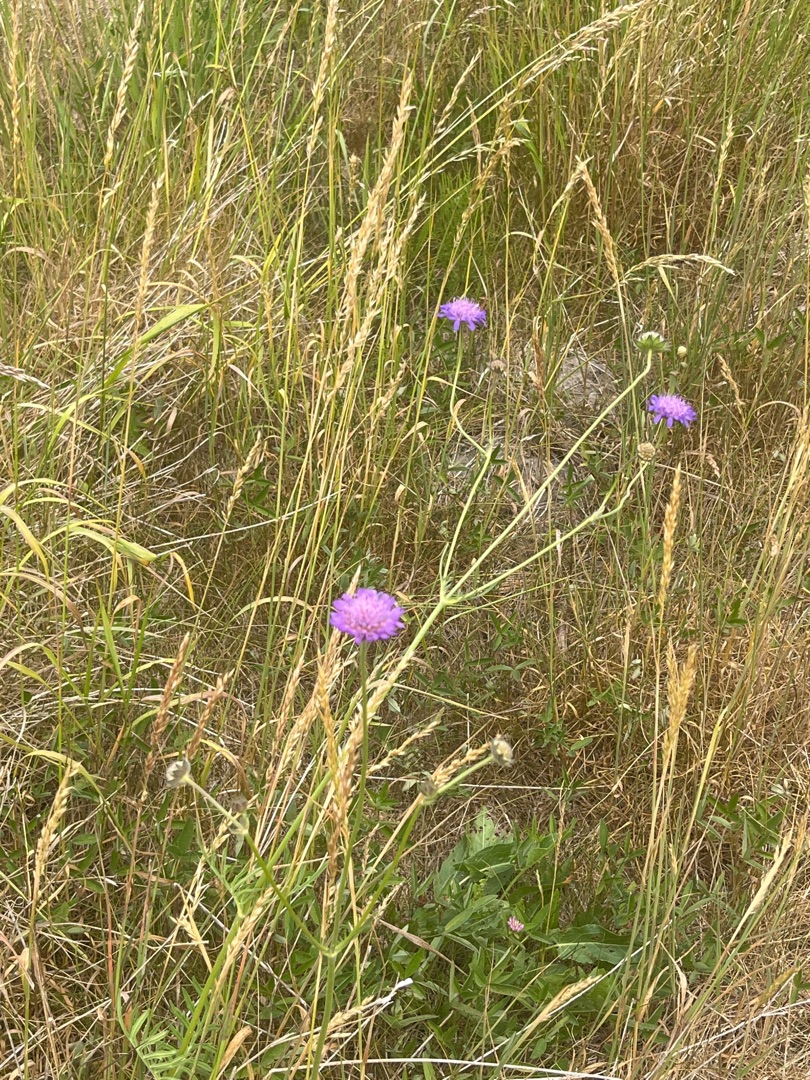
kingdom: Plantae
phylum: Tracheophyta
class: Magnoliopsida
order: Dipsacales
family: Caprifoliaceae
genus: Knautia
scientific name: Knautia arvensis
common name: Blåhat
